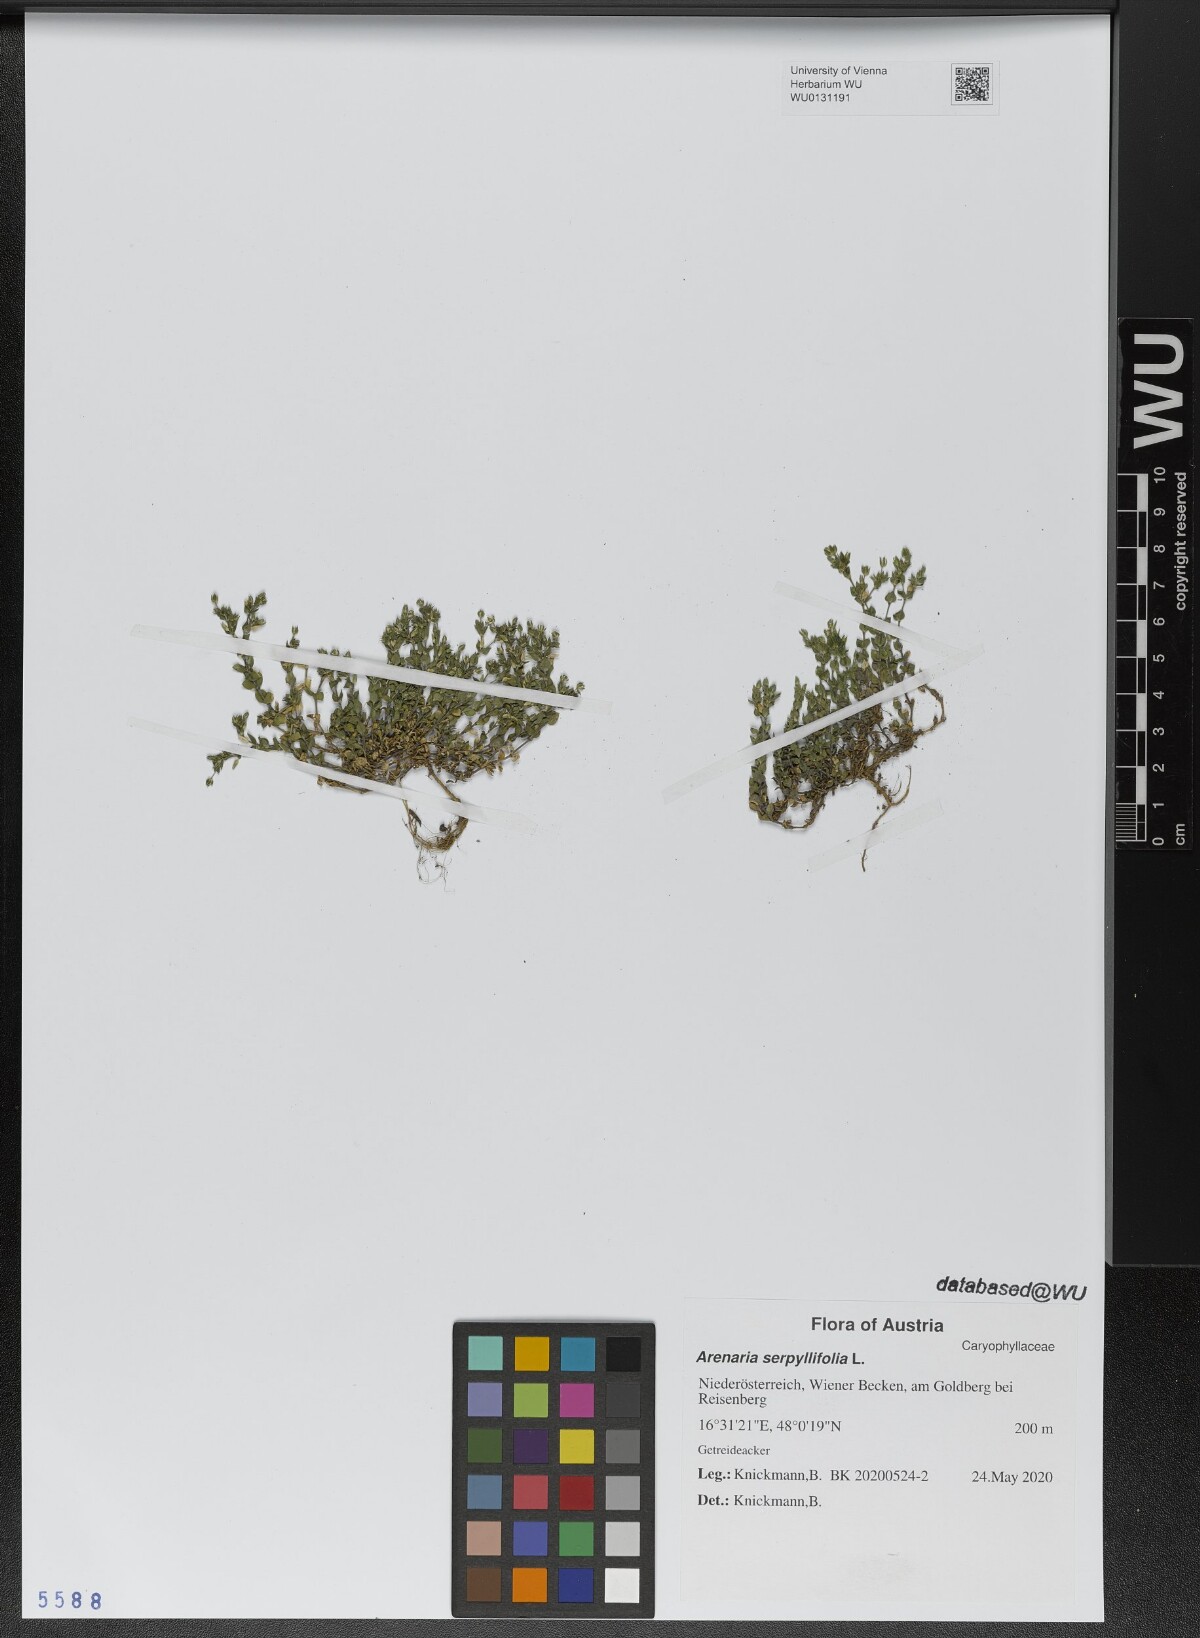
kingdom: Plantae
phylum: Tracheophyta
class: Magnoliopsida
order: Caryophyllales
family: Caryophyllaceae
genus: Arenaria
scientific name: Arenaria serpyllifolia
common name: Thyme-leaved sandwort
